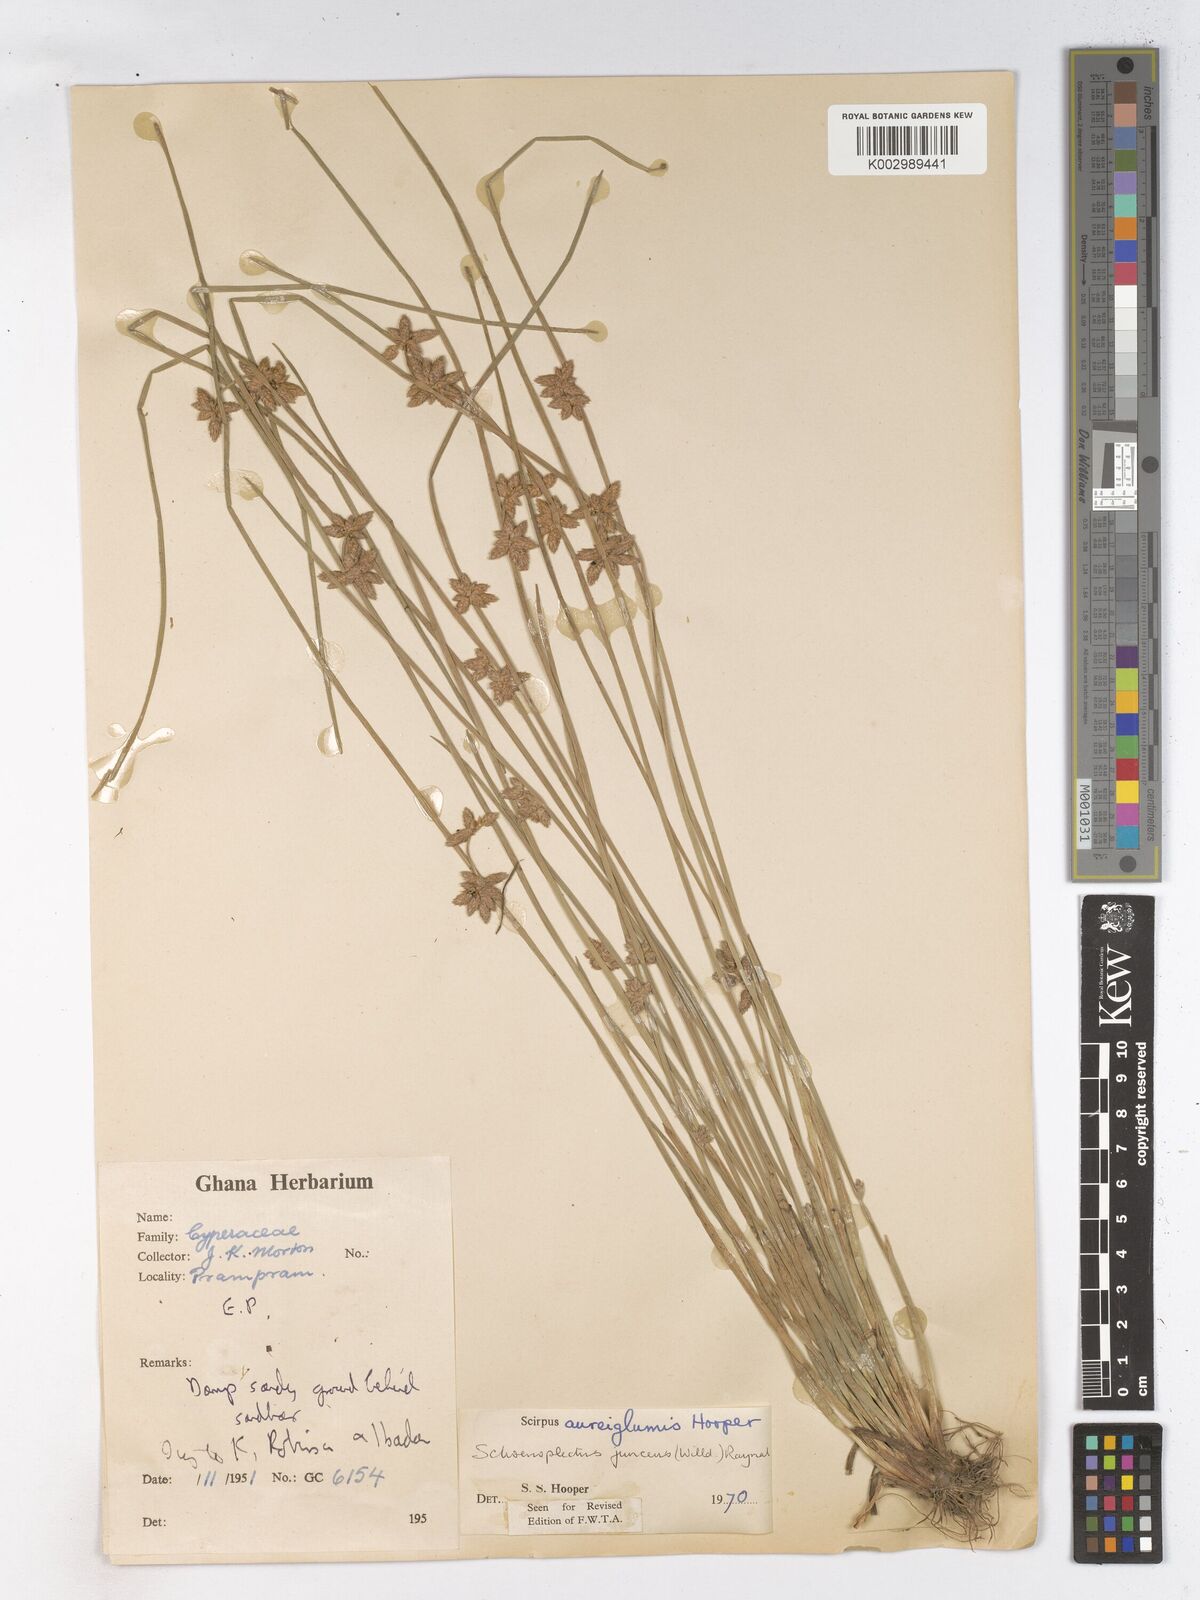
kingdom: Plantae
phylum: Tracheophyta
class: Liliopsida
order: Poales
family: Cyperaceae
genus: Schoenoplectiella
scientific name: Schoenoplectiella juncea
